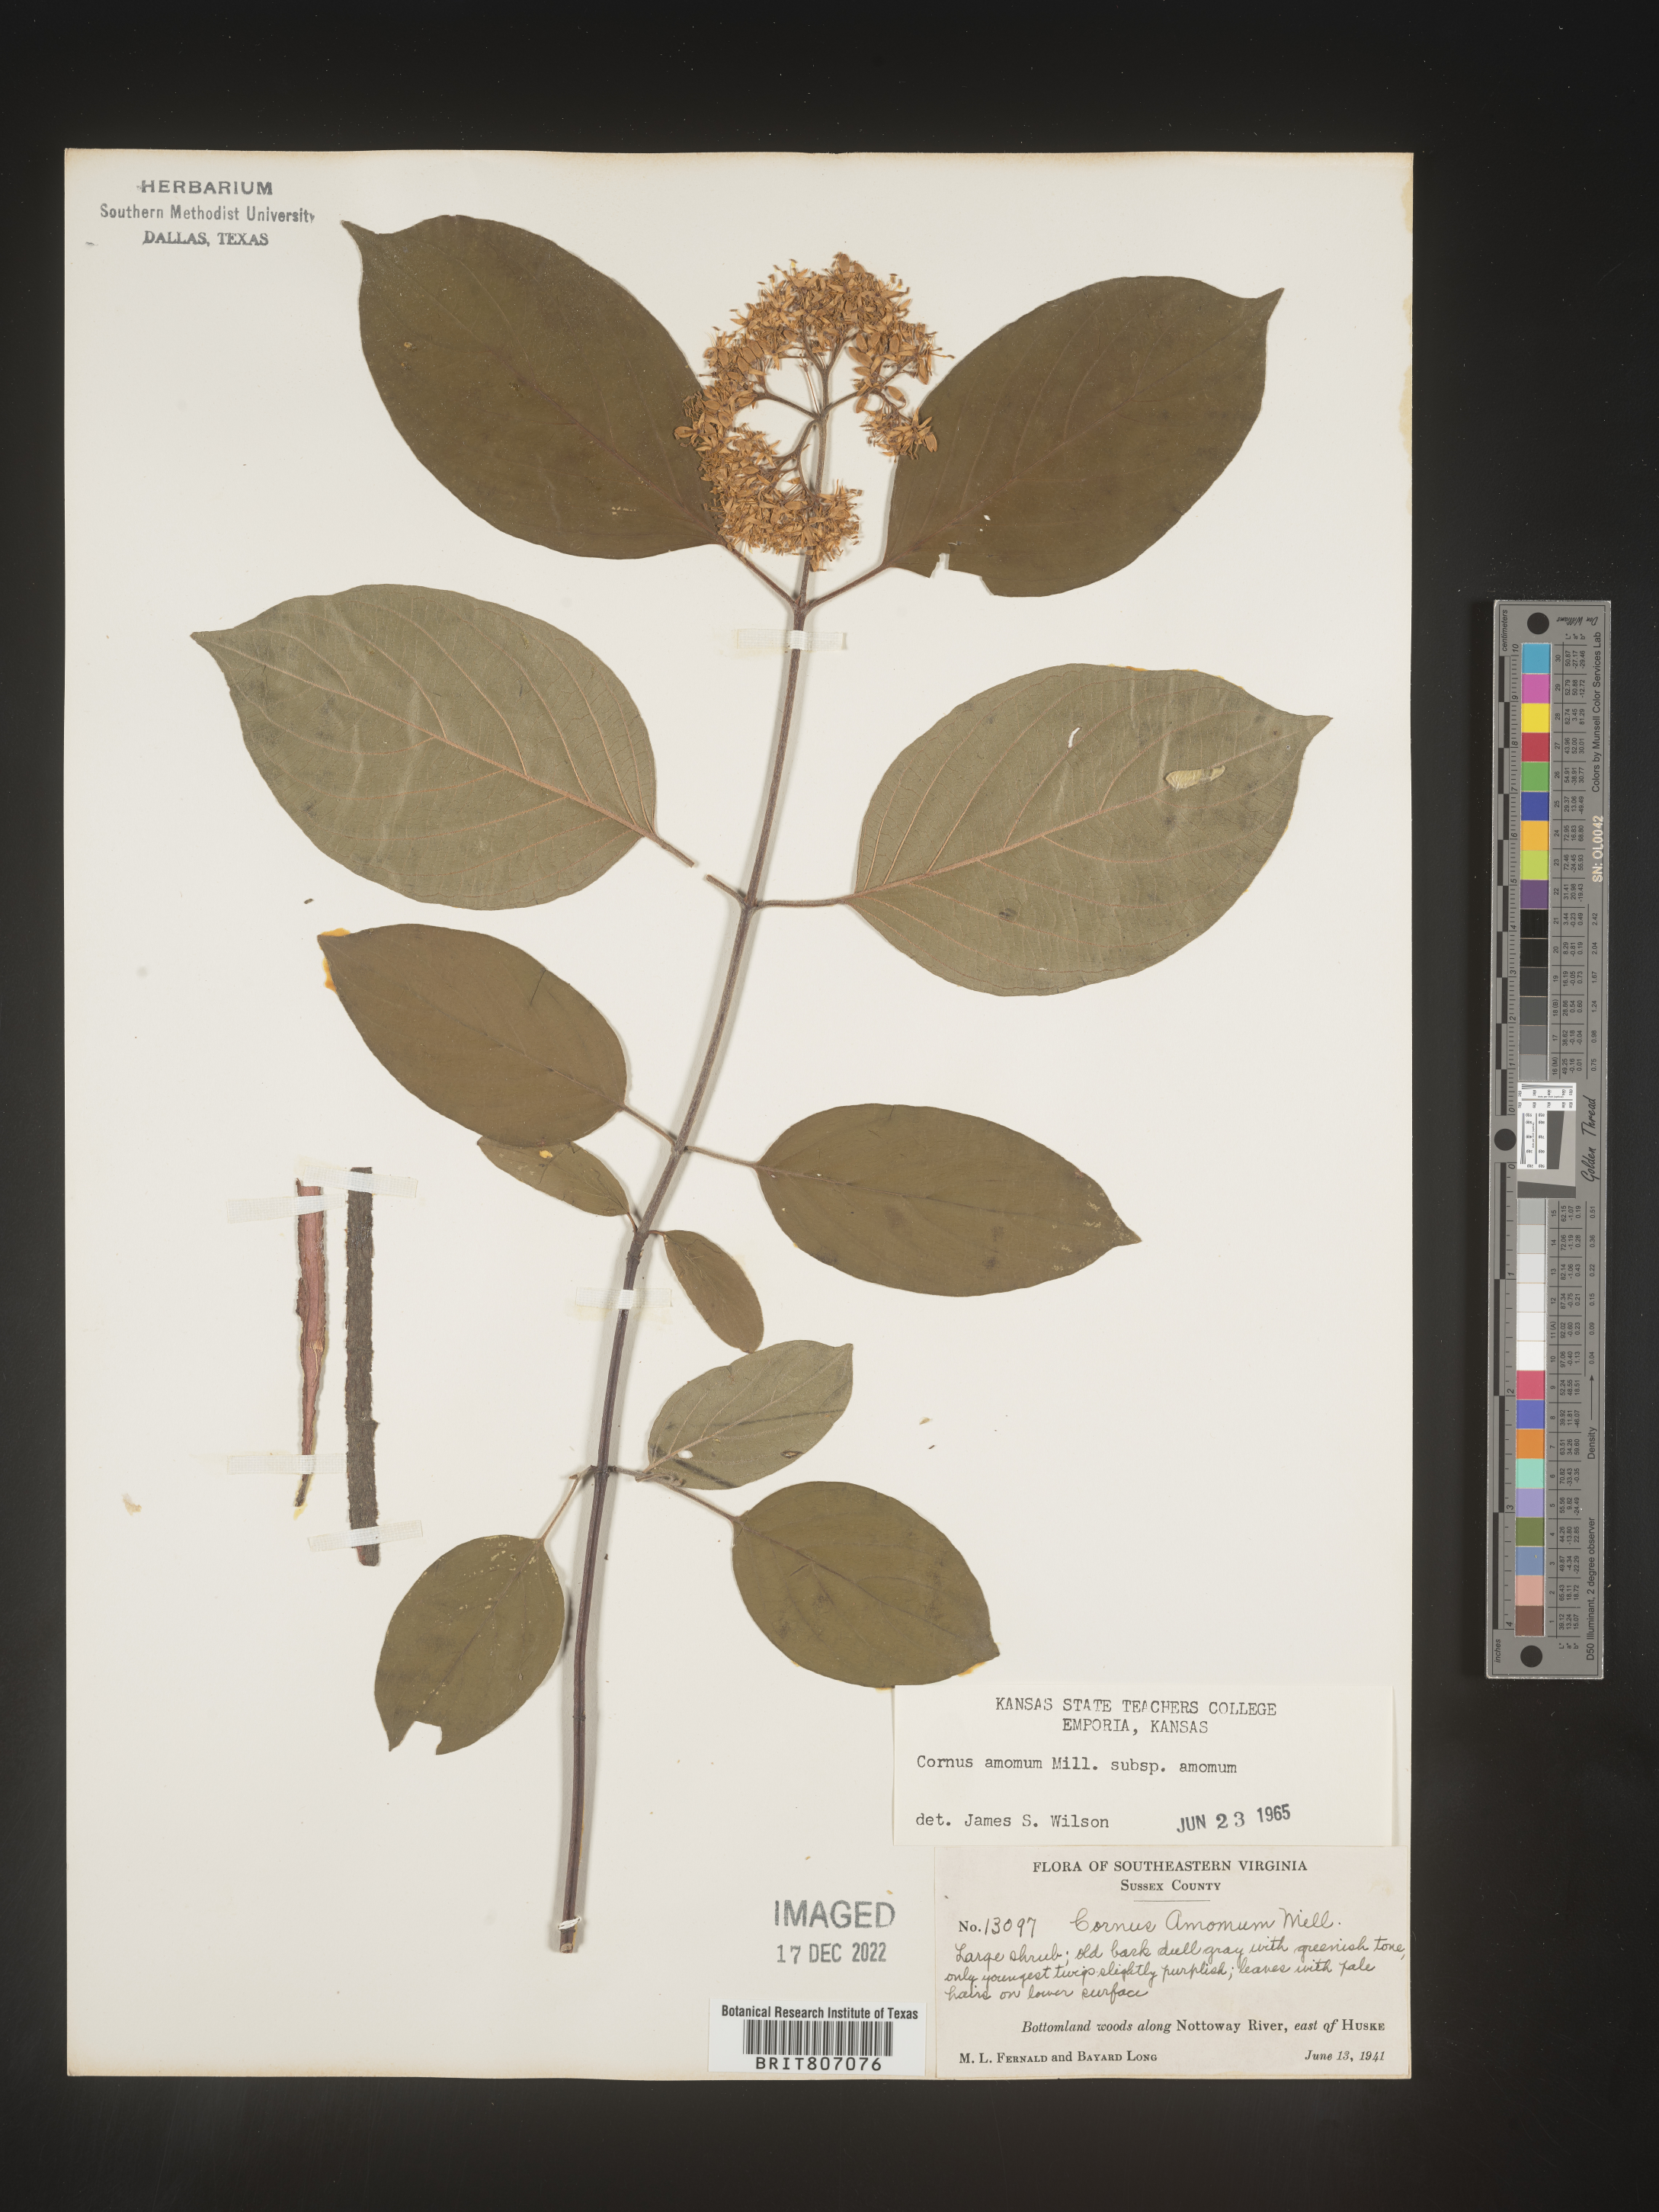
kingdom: Plantae
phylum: Tracheophyta
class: Magnoliopsida
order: Cornales
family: Cornaceae
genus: Cornus
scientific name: Cornus amomum
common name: Silky dogwood
